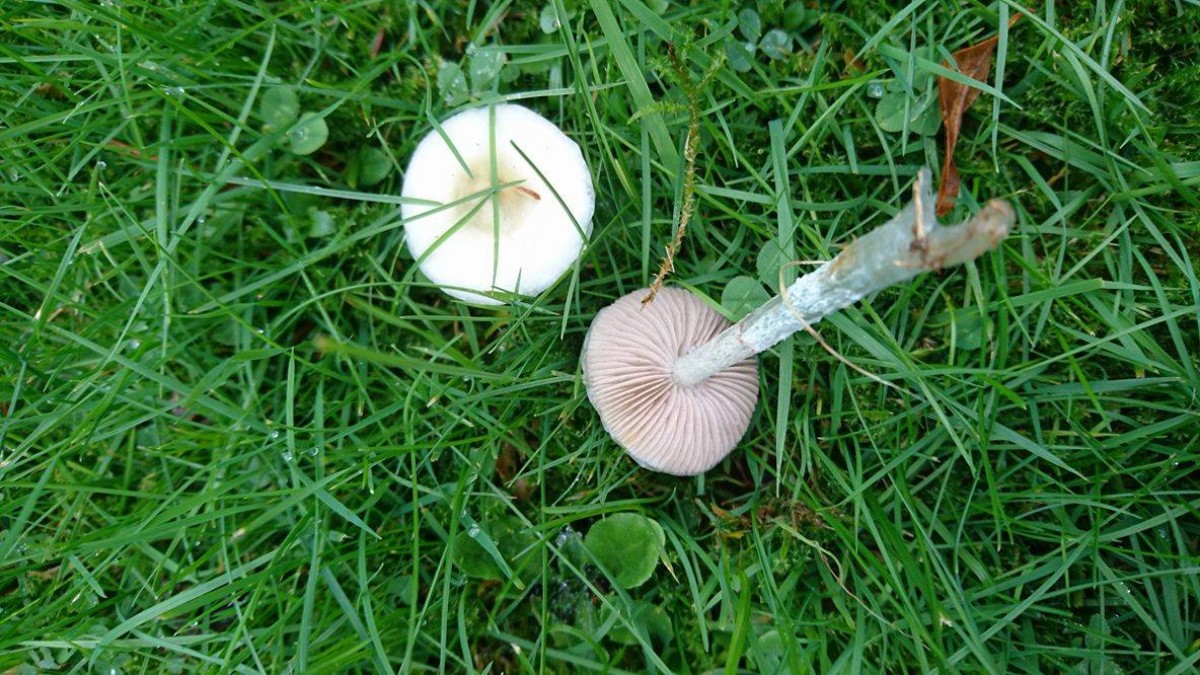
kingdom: Fungi
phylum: Basidiomycota
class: Agaricomycetes
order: Agaricales
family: Strophariaceae
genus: Stropharia
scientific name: Stropharia cyanea
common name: blågrøn bredblad
